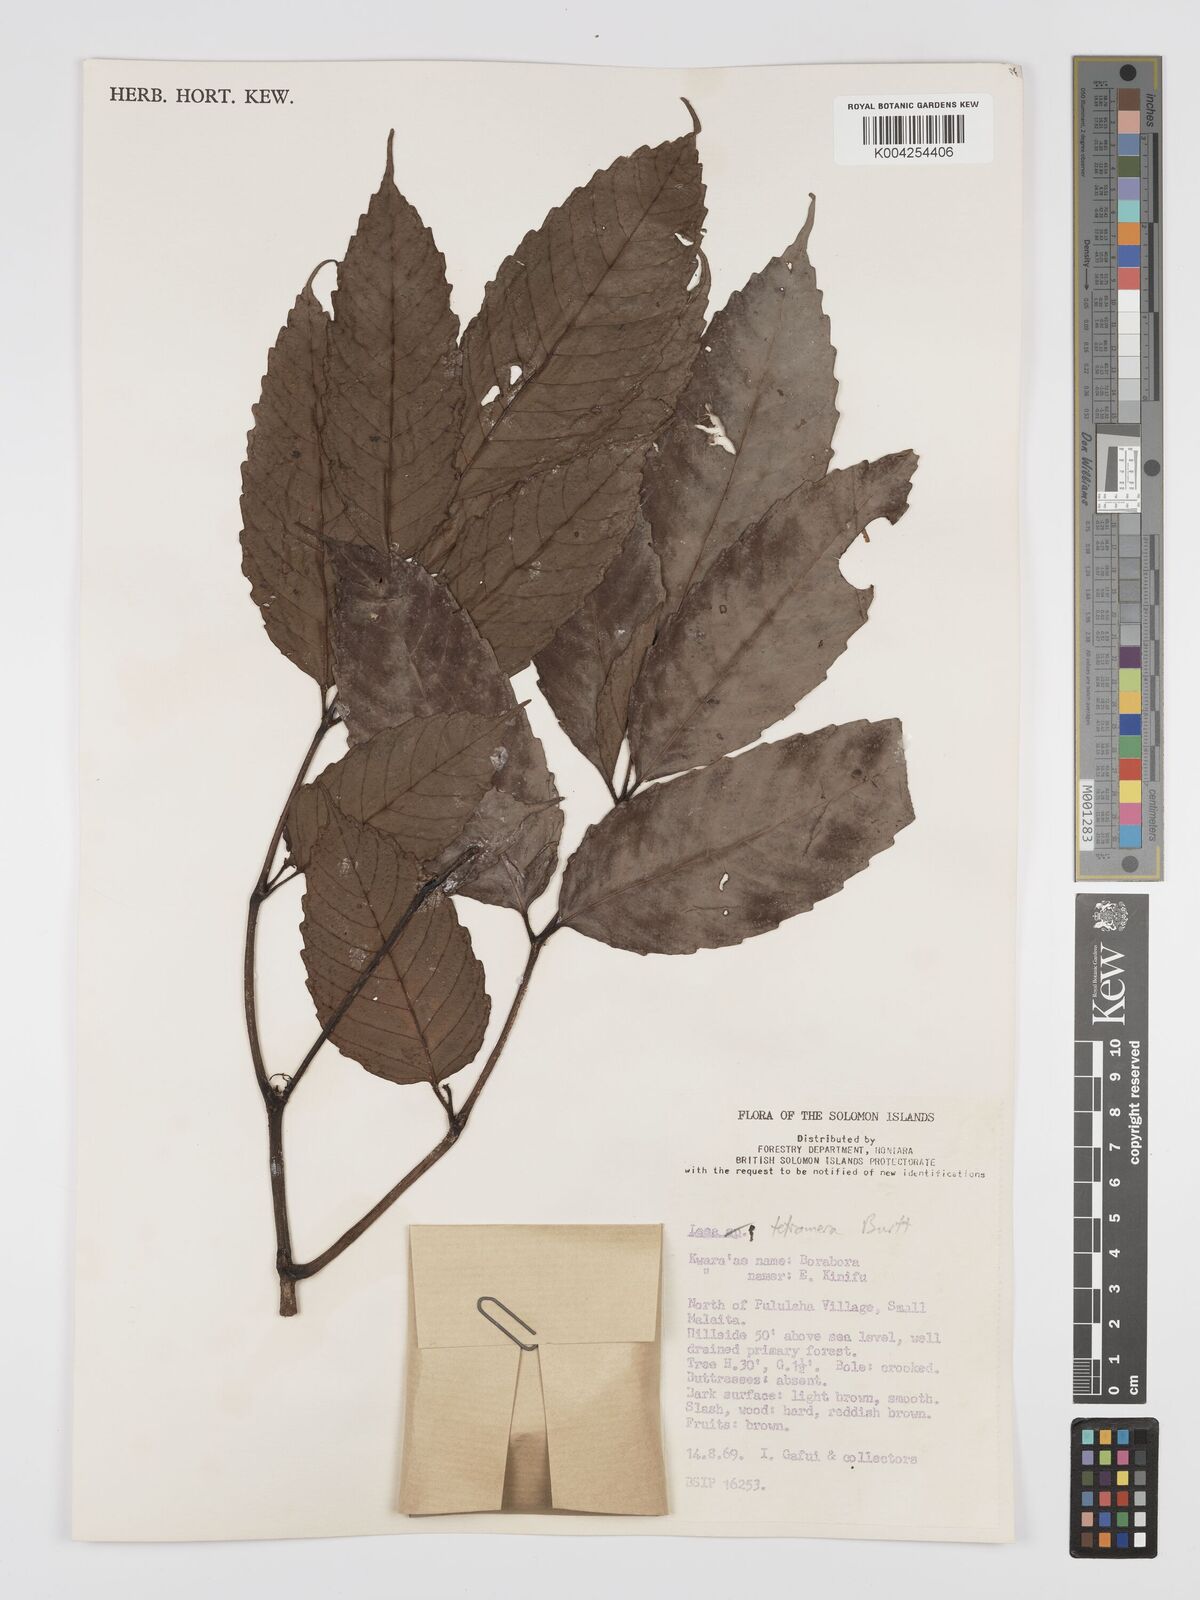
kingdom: Plantae
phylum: Tracheophyta
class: Magnoliopsida
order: Vitales
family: Vitaceae
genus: Leea
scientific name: Leea tetramera
